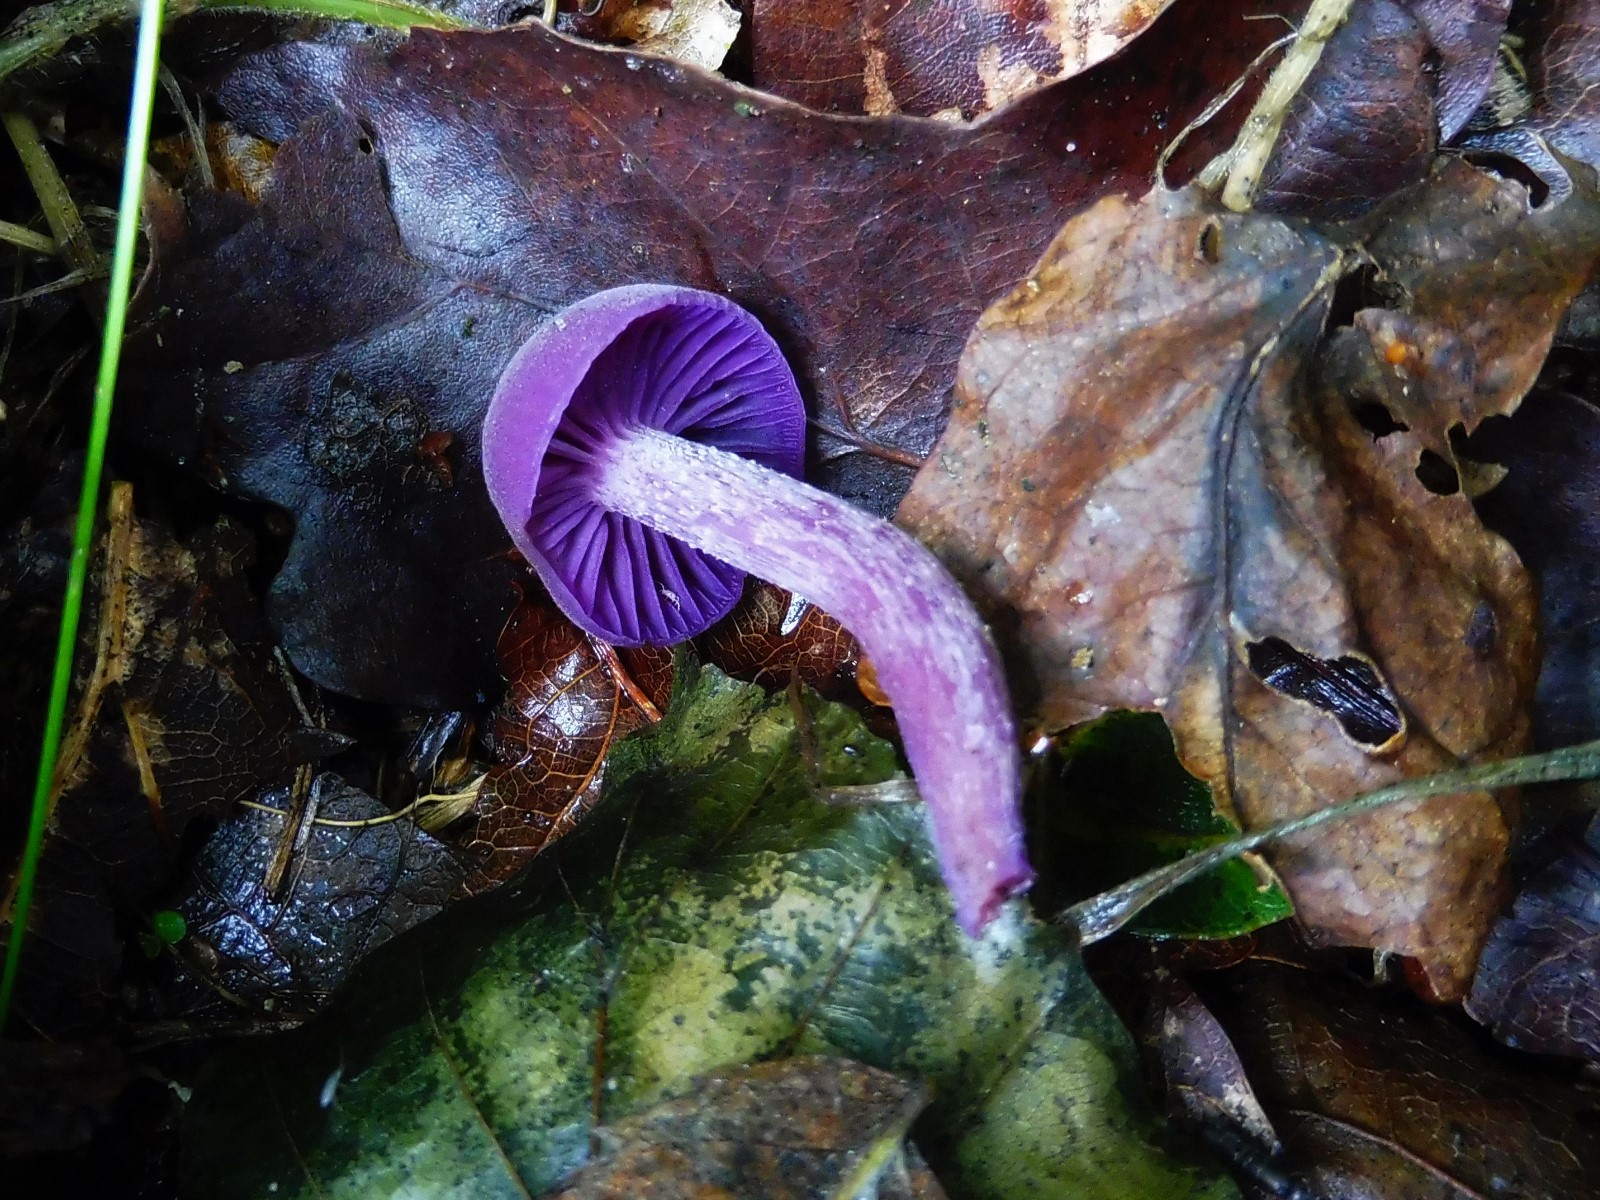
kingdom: Fungi
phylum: Basidiomycota
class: Agaricomycetes
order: Agaricales
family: Hydnangiaceae
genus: Laccaria
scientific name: Laccaria amethystina
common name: violet ametysthat
